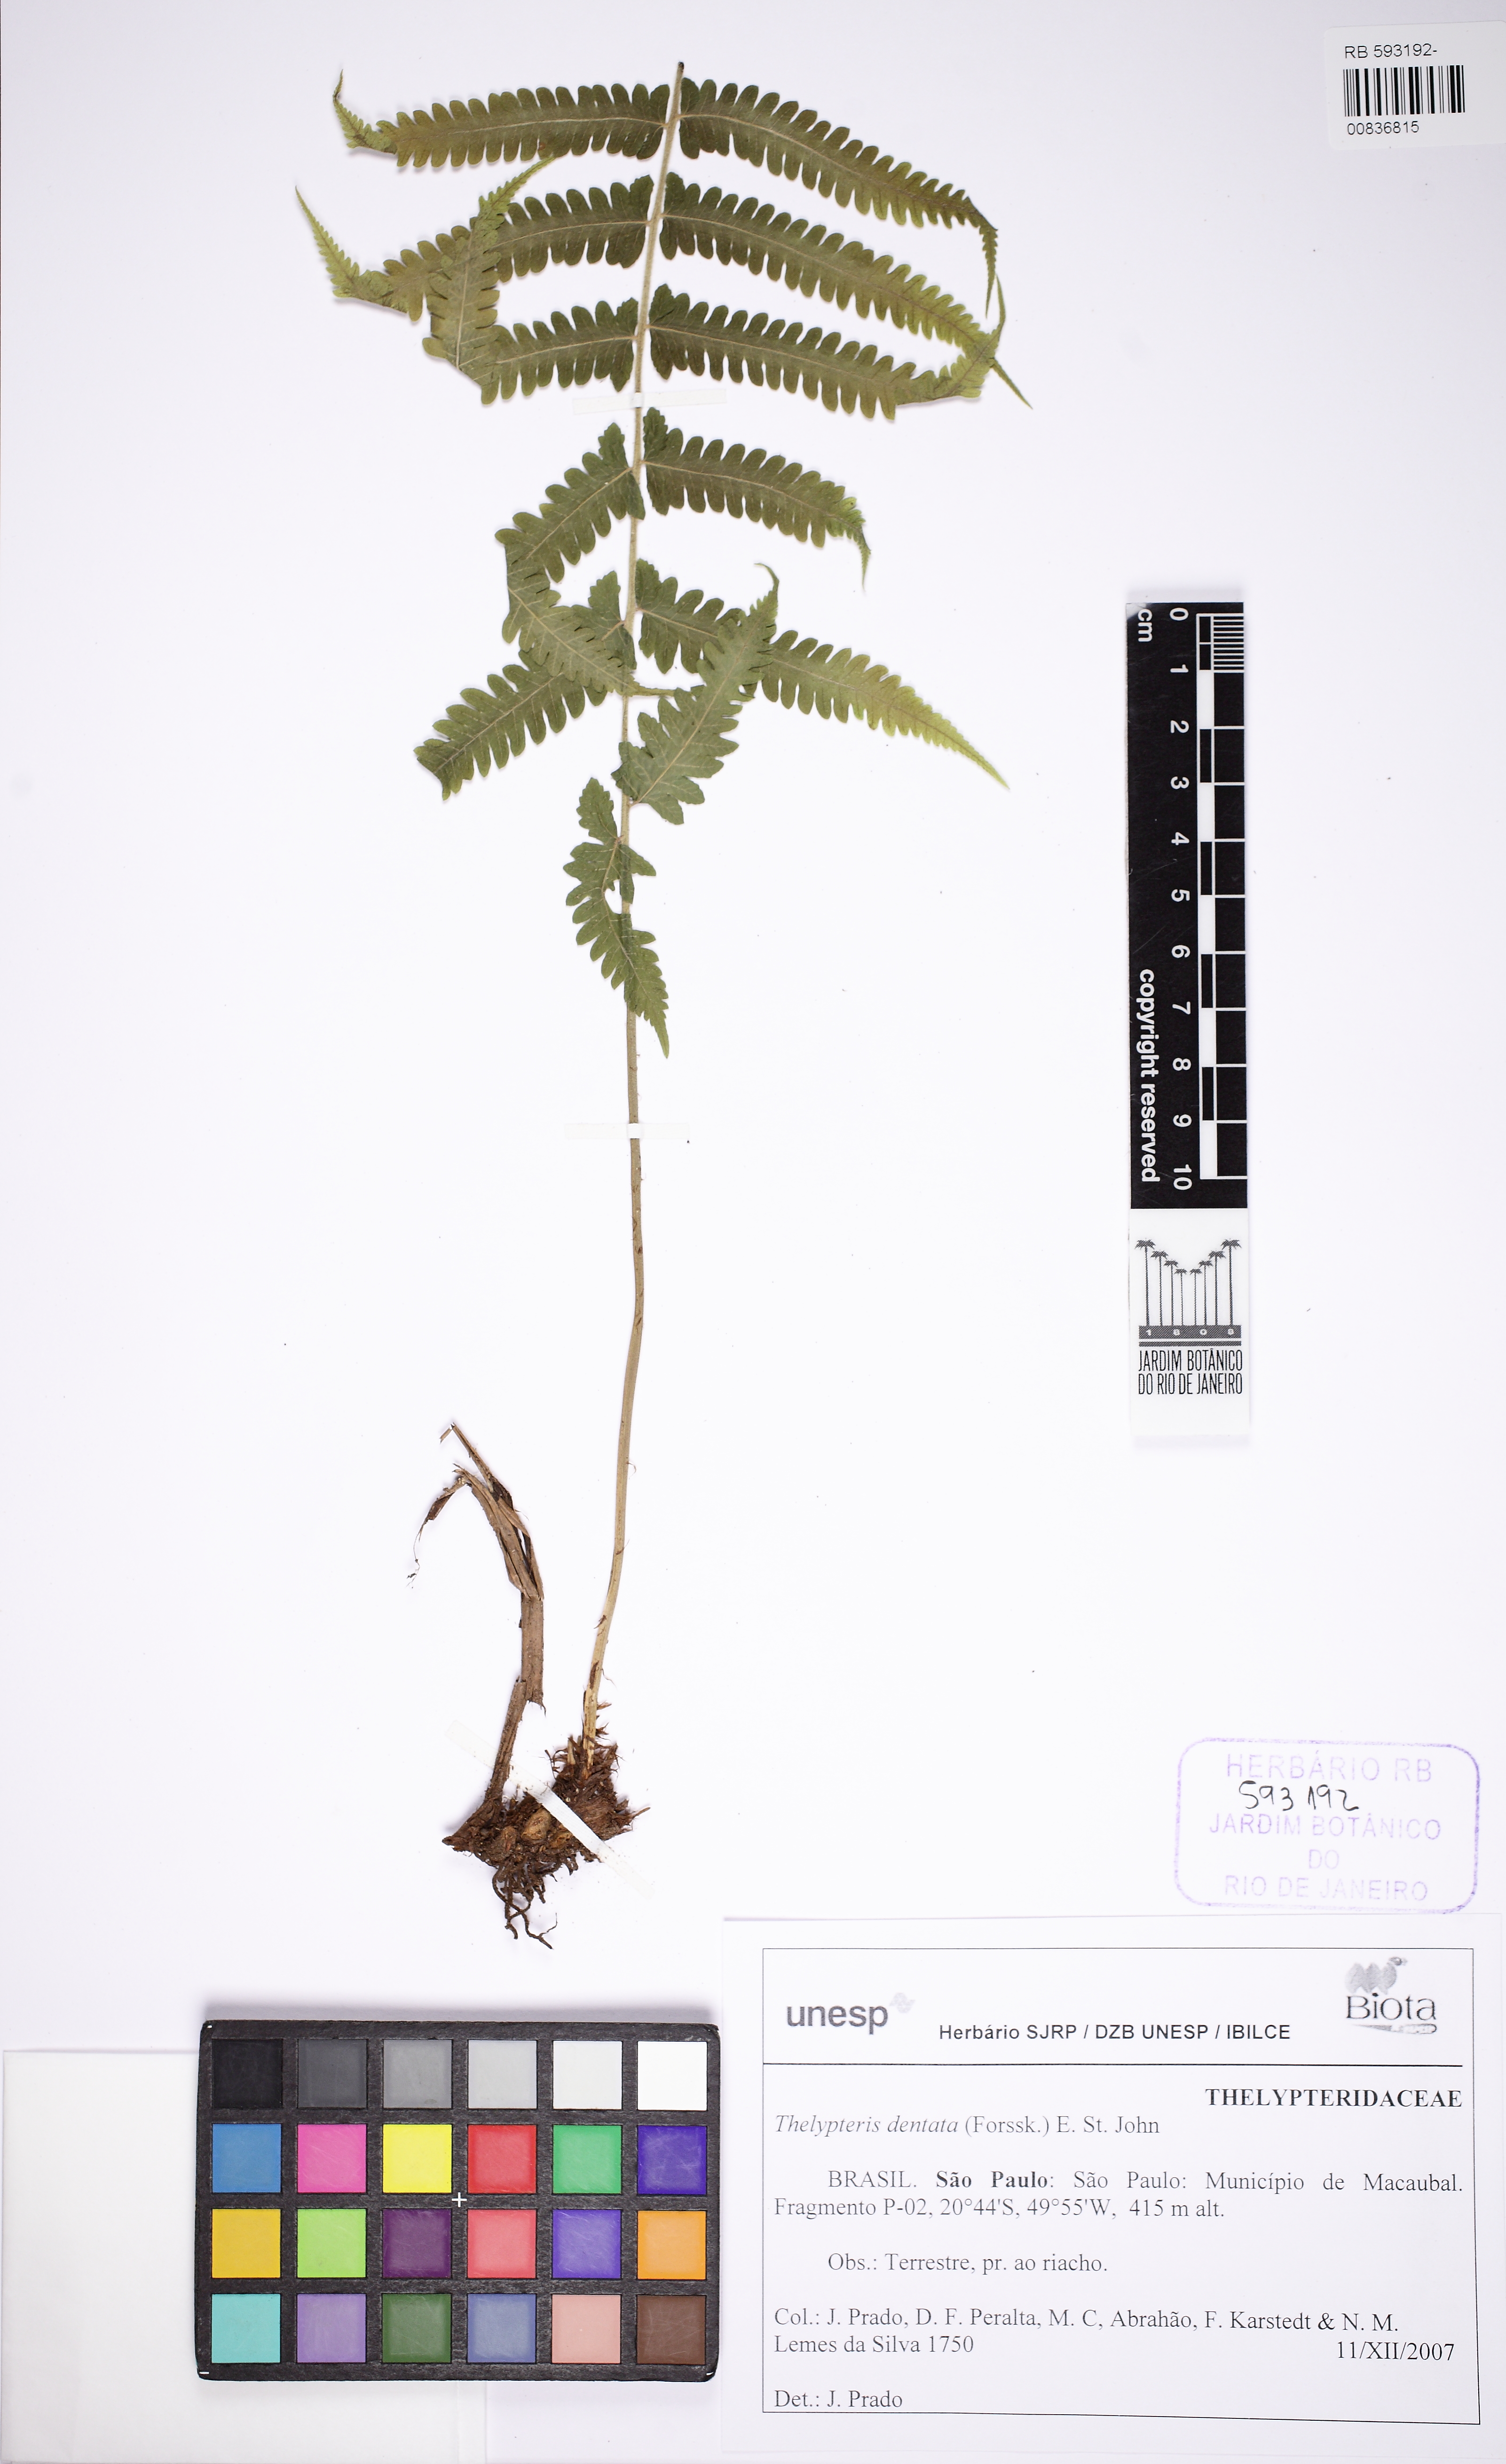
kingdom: Plantae
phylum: Tracheophyta
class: Polypodiopsida
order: Polypodiales
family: Thelypteridaceae
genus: Christella
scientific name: Christella dentata
